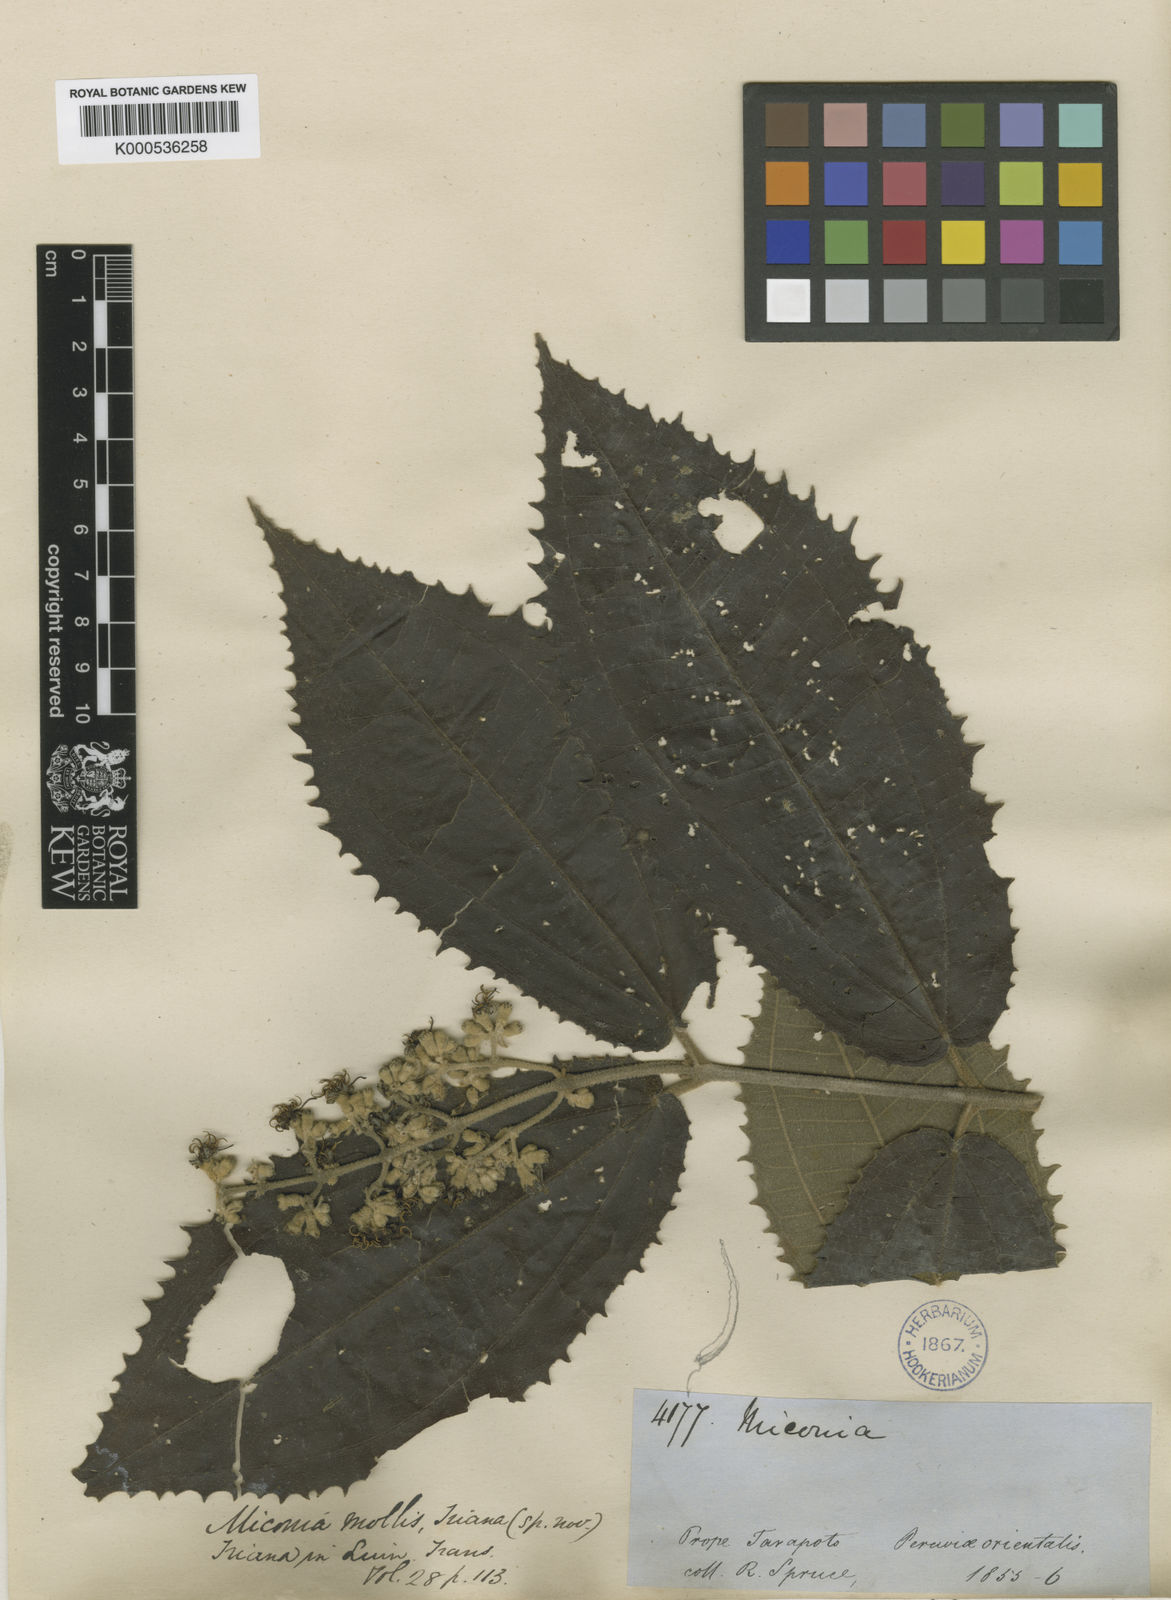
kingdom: Plantae
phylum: Tracheophyta
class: Magnoliopsida
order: Myrtales
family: Melastomataceae
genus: Miconia
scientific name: Miconia mollis
